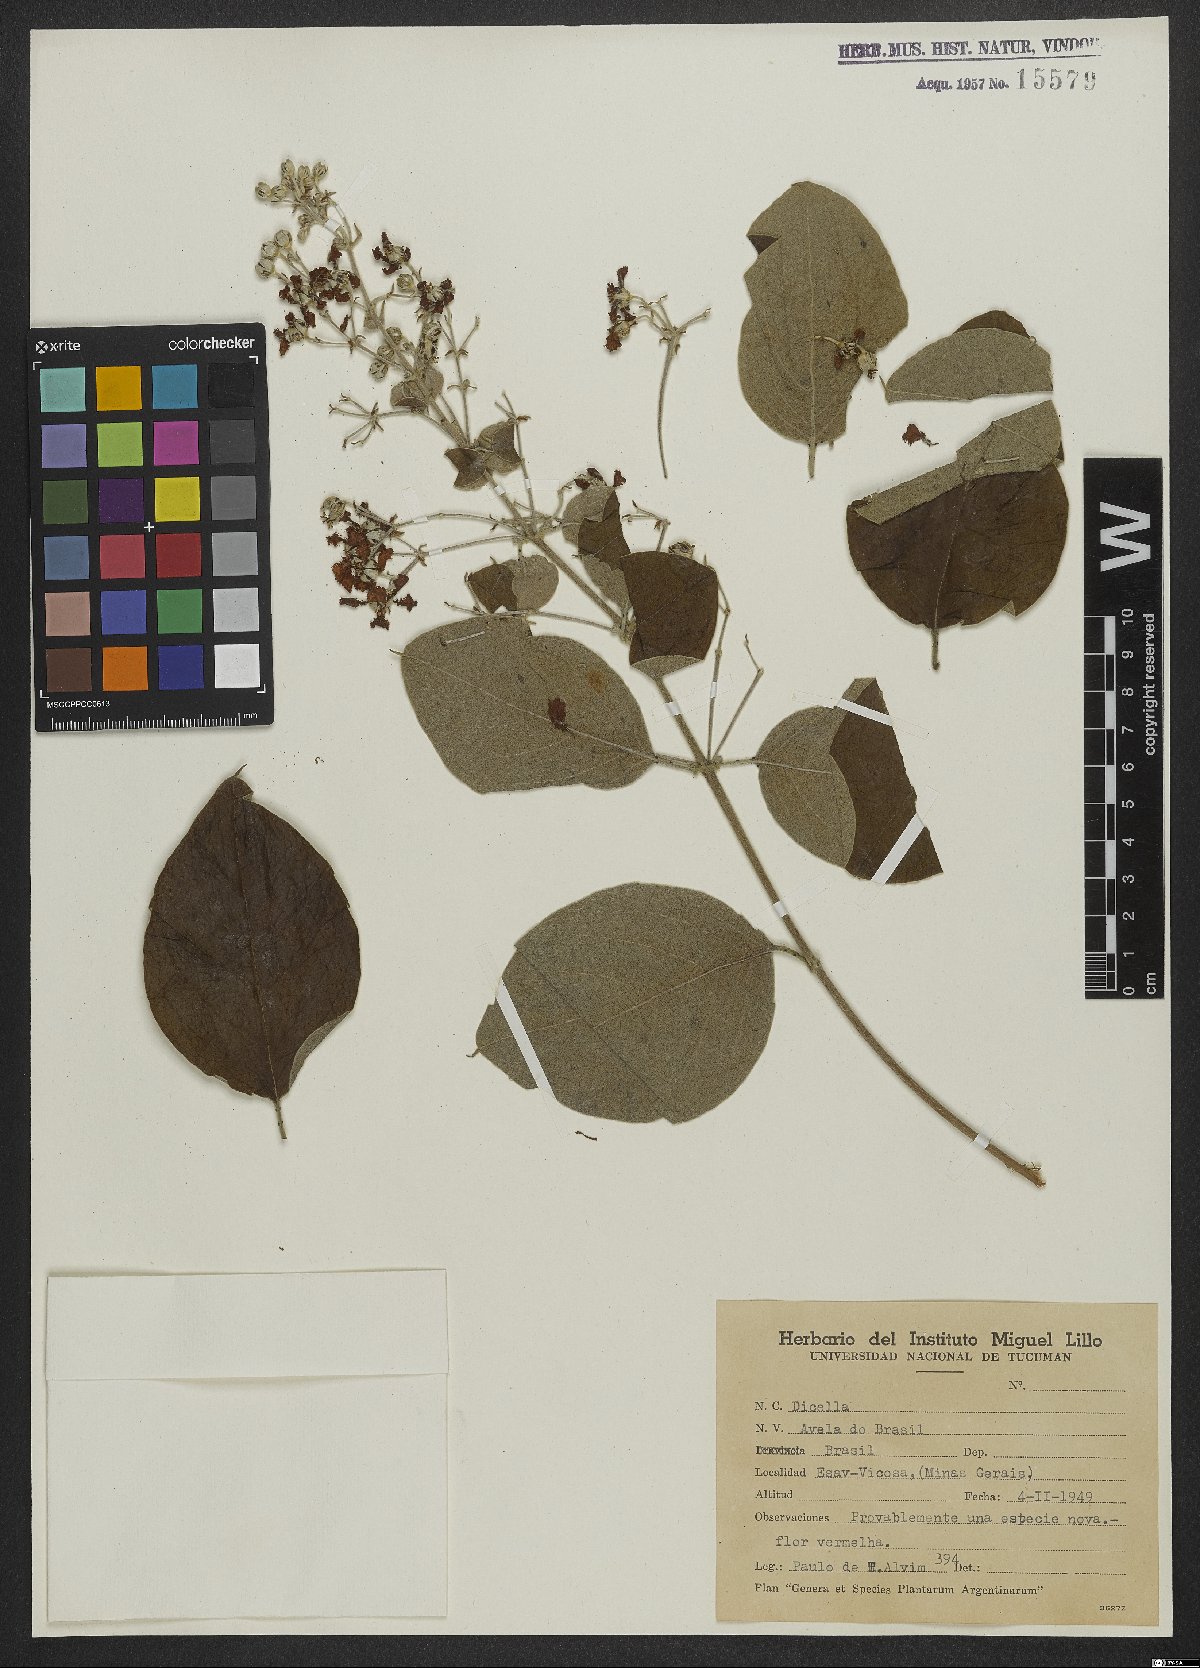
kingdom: Plantae
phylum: Tracheophyta
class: Magnoliopsida
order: Malpighiales
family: Malpighiaceae
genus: Dicella
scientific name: Dicella
